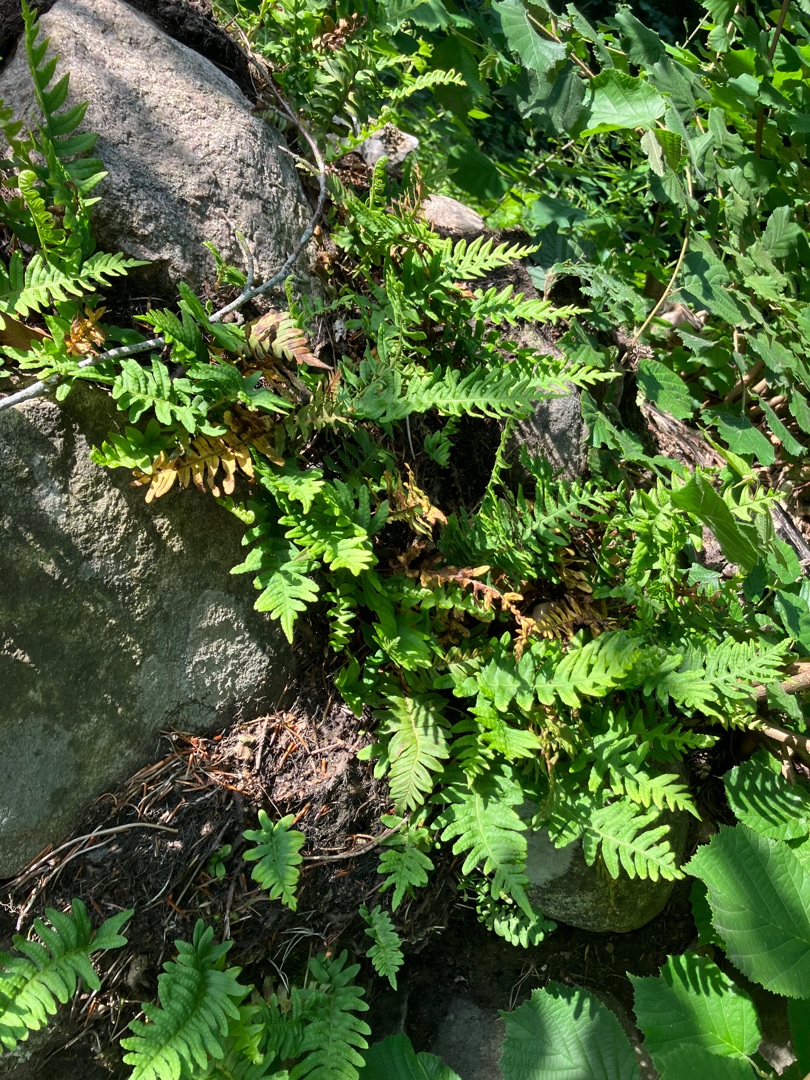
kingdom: Plantae
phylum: Tracheophyta
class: Polypodiopsida
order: Polypodiales
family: Polypodiaceae
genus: Polypodium
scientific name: Polypodium vulgare
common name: Almindelig engelsød
